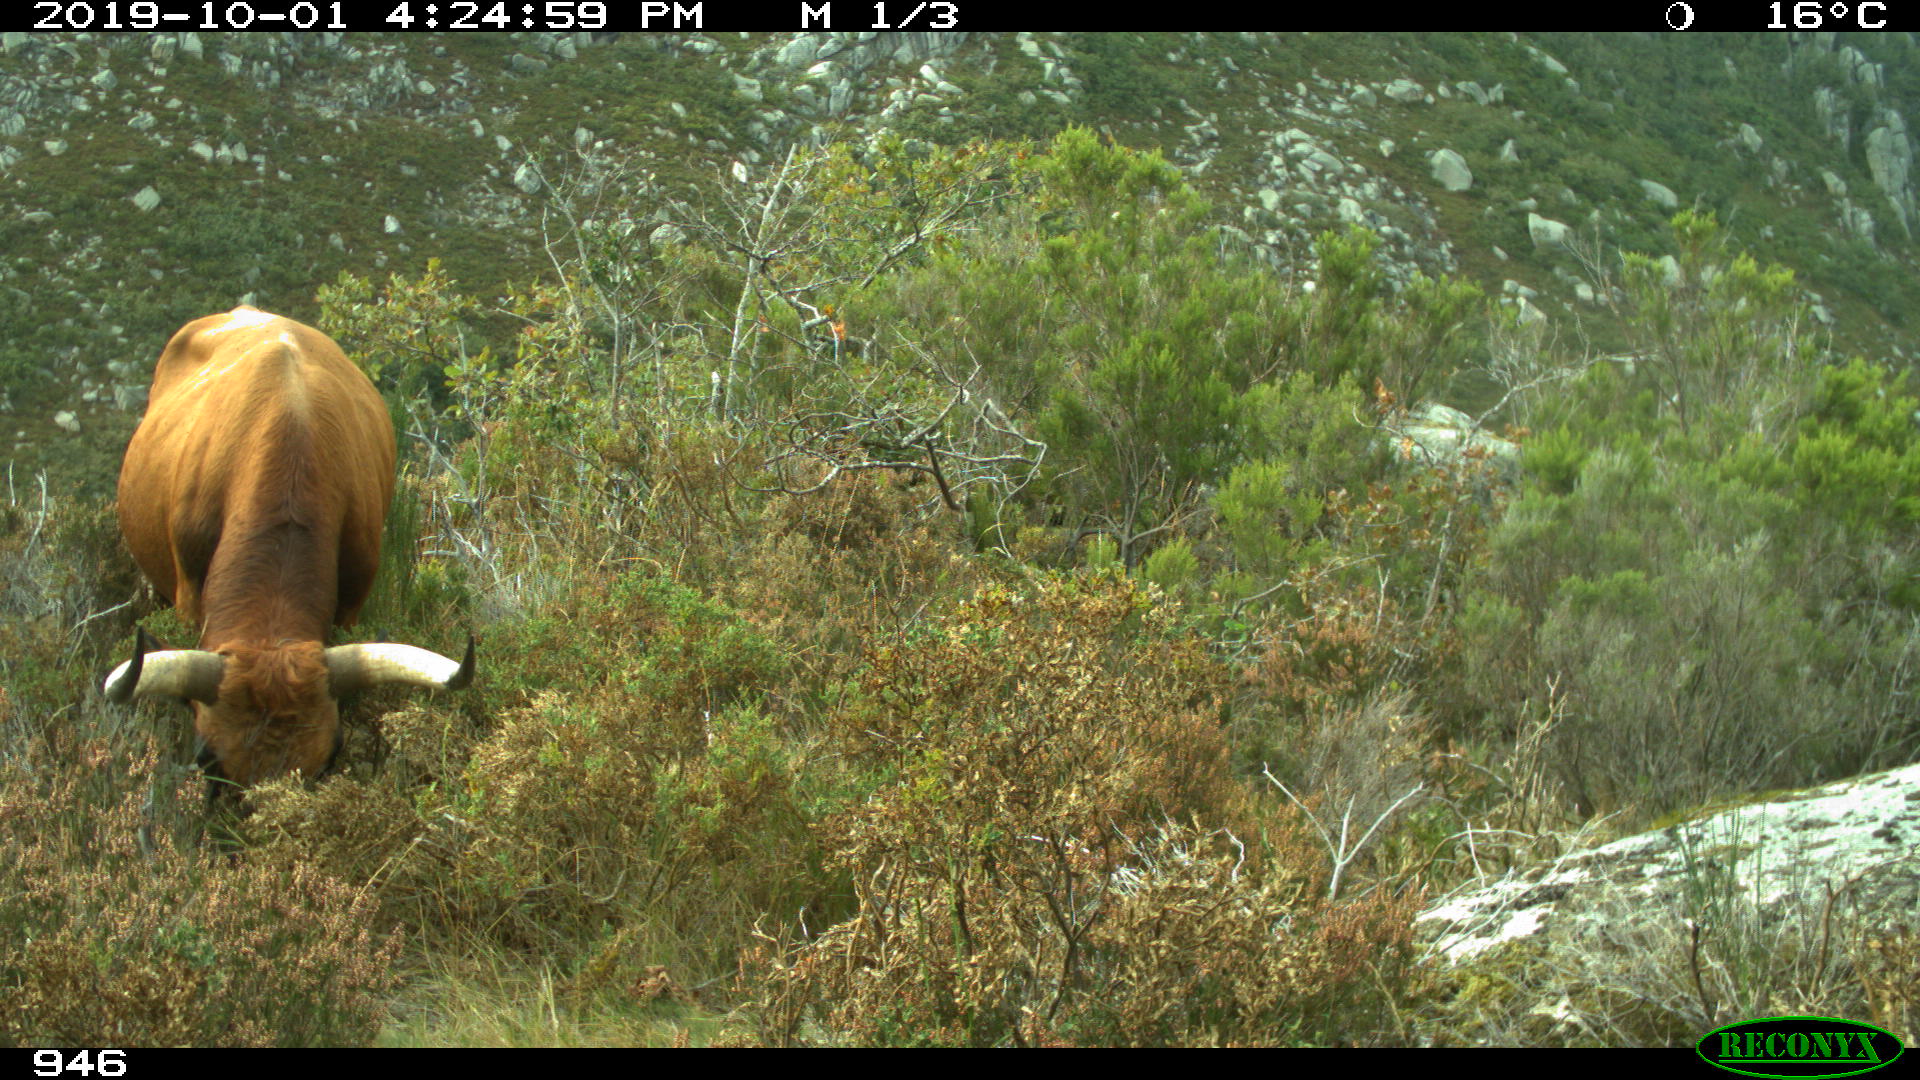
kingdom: Animalia
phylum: Chordata
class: Mammalia
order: Artiodactyla
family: Bovidae
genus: Bos
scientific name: Bos taurus
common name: Domesticated cattle
